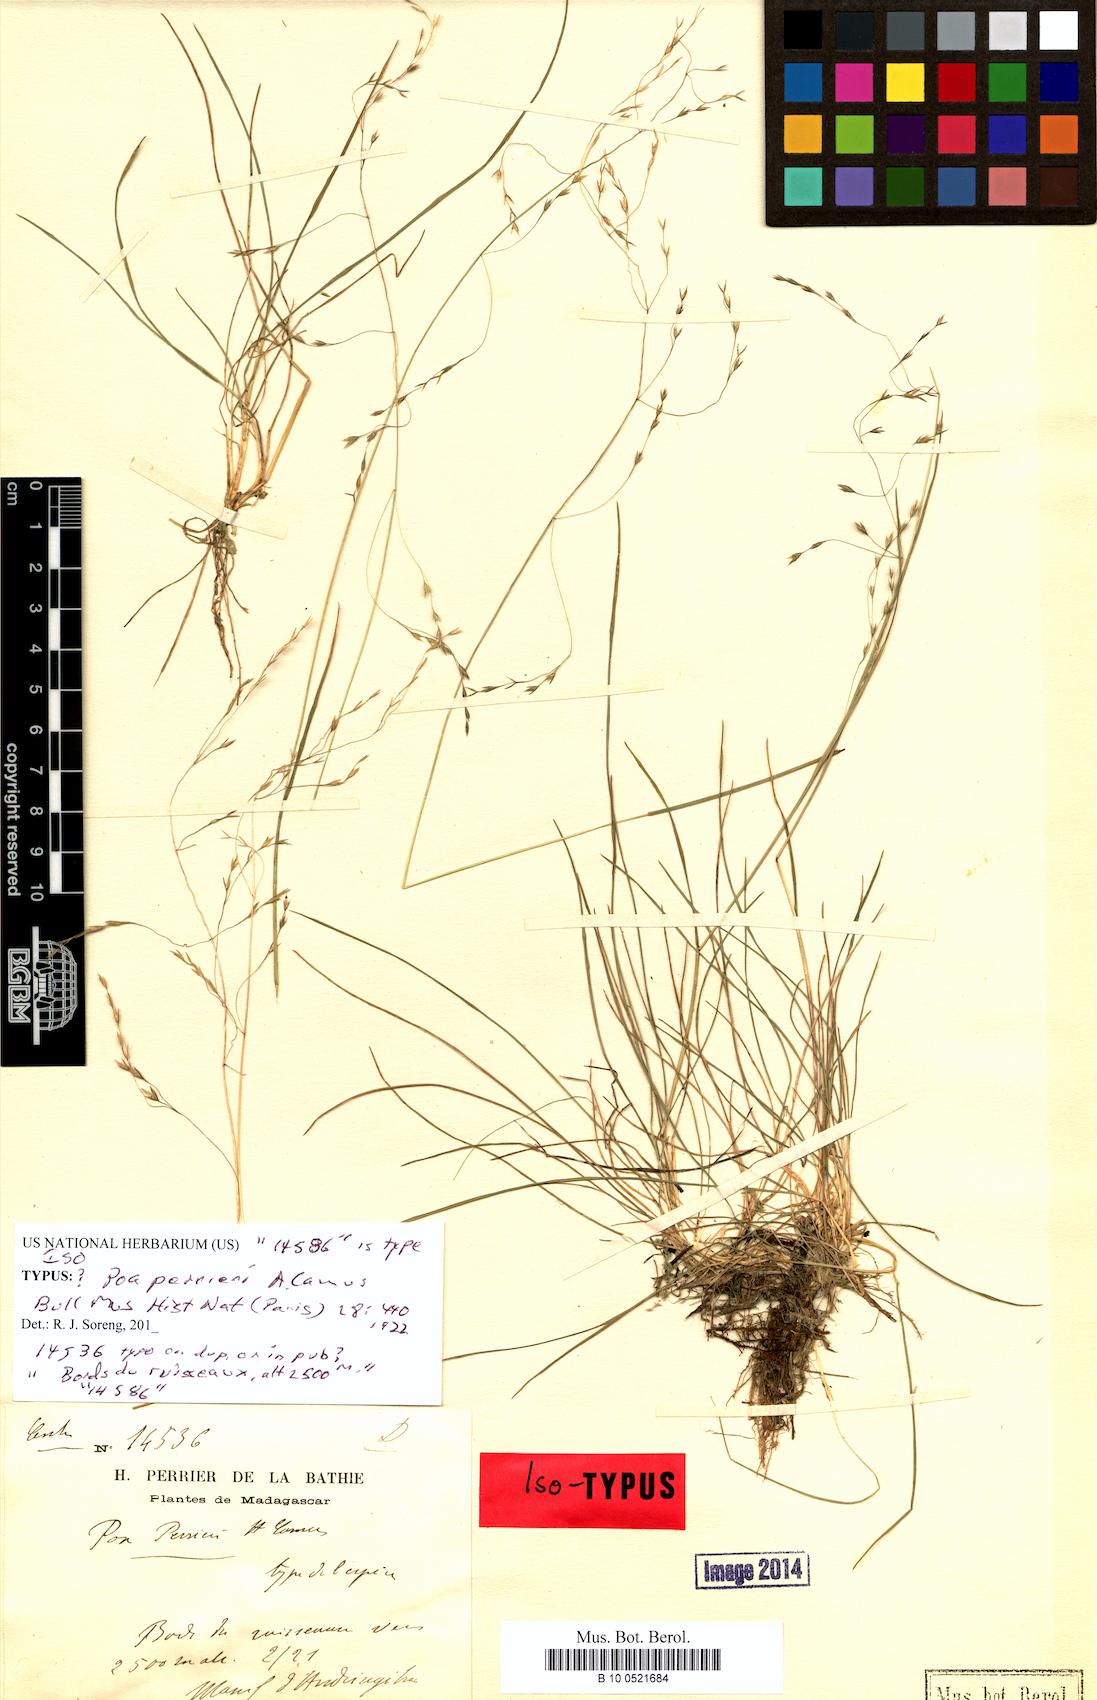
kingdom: Plantae
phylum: Tracheophyta
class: Liliopsida
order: Poales
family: Poaceae
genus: Poa
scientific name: Poa perrieri
